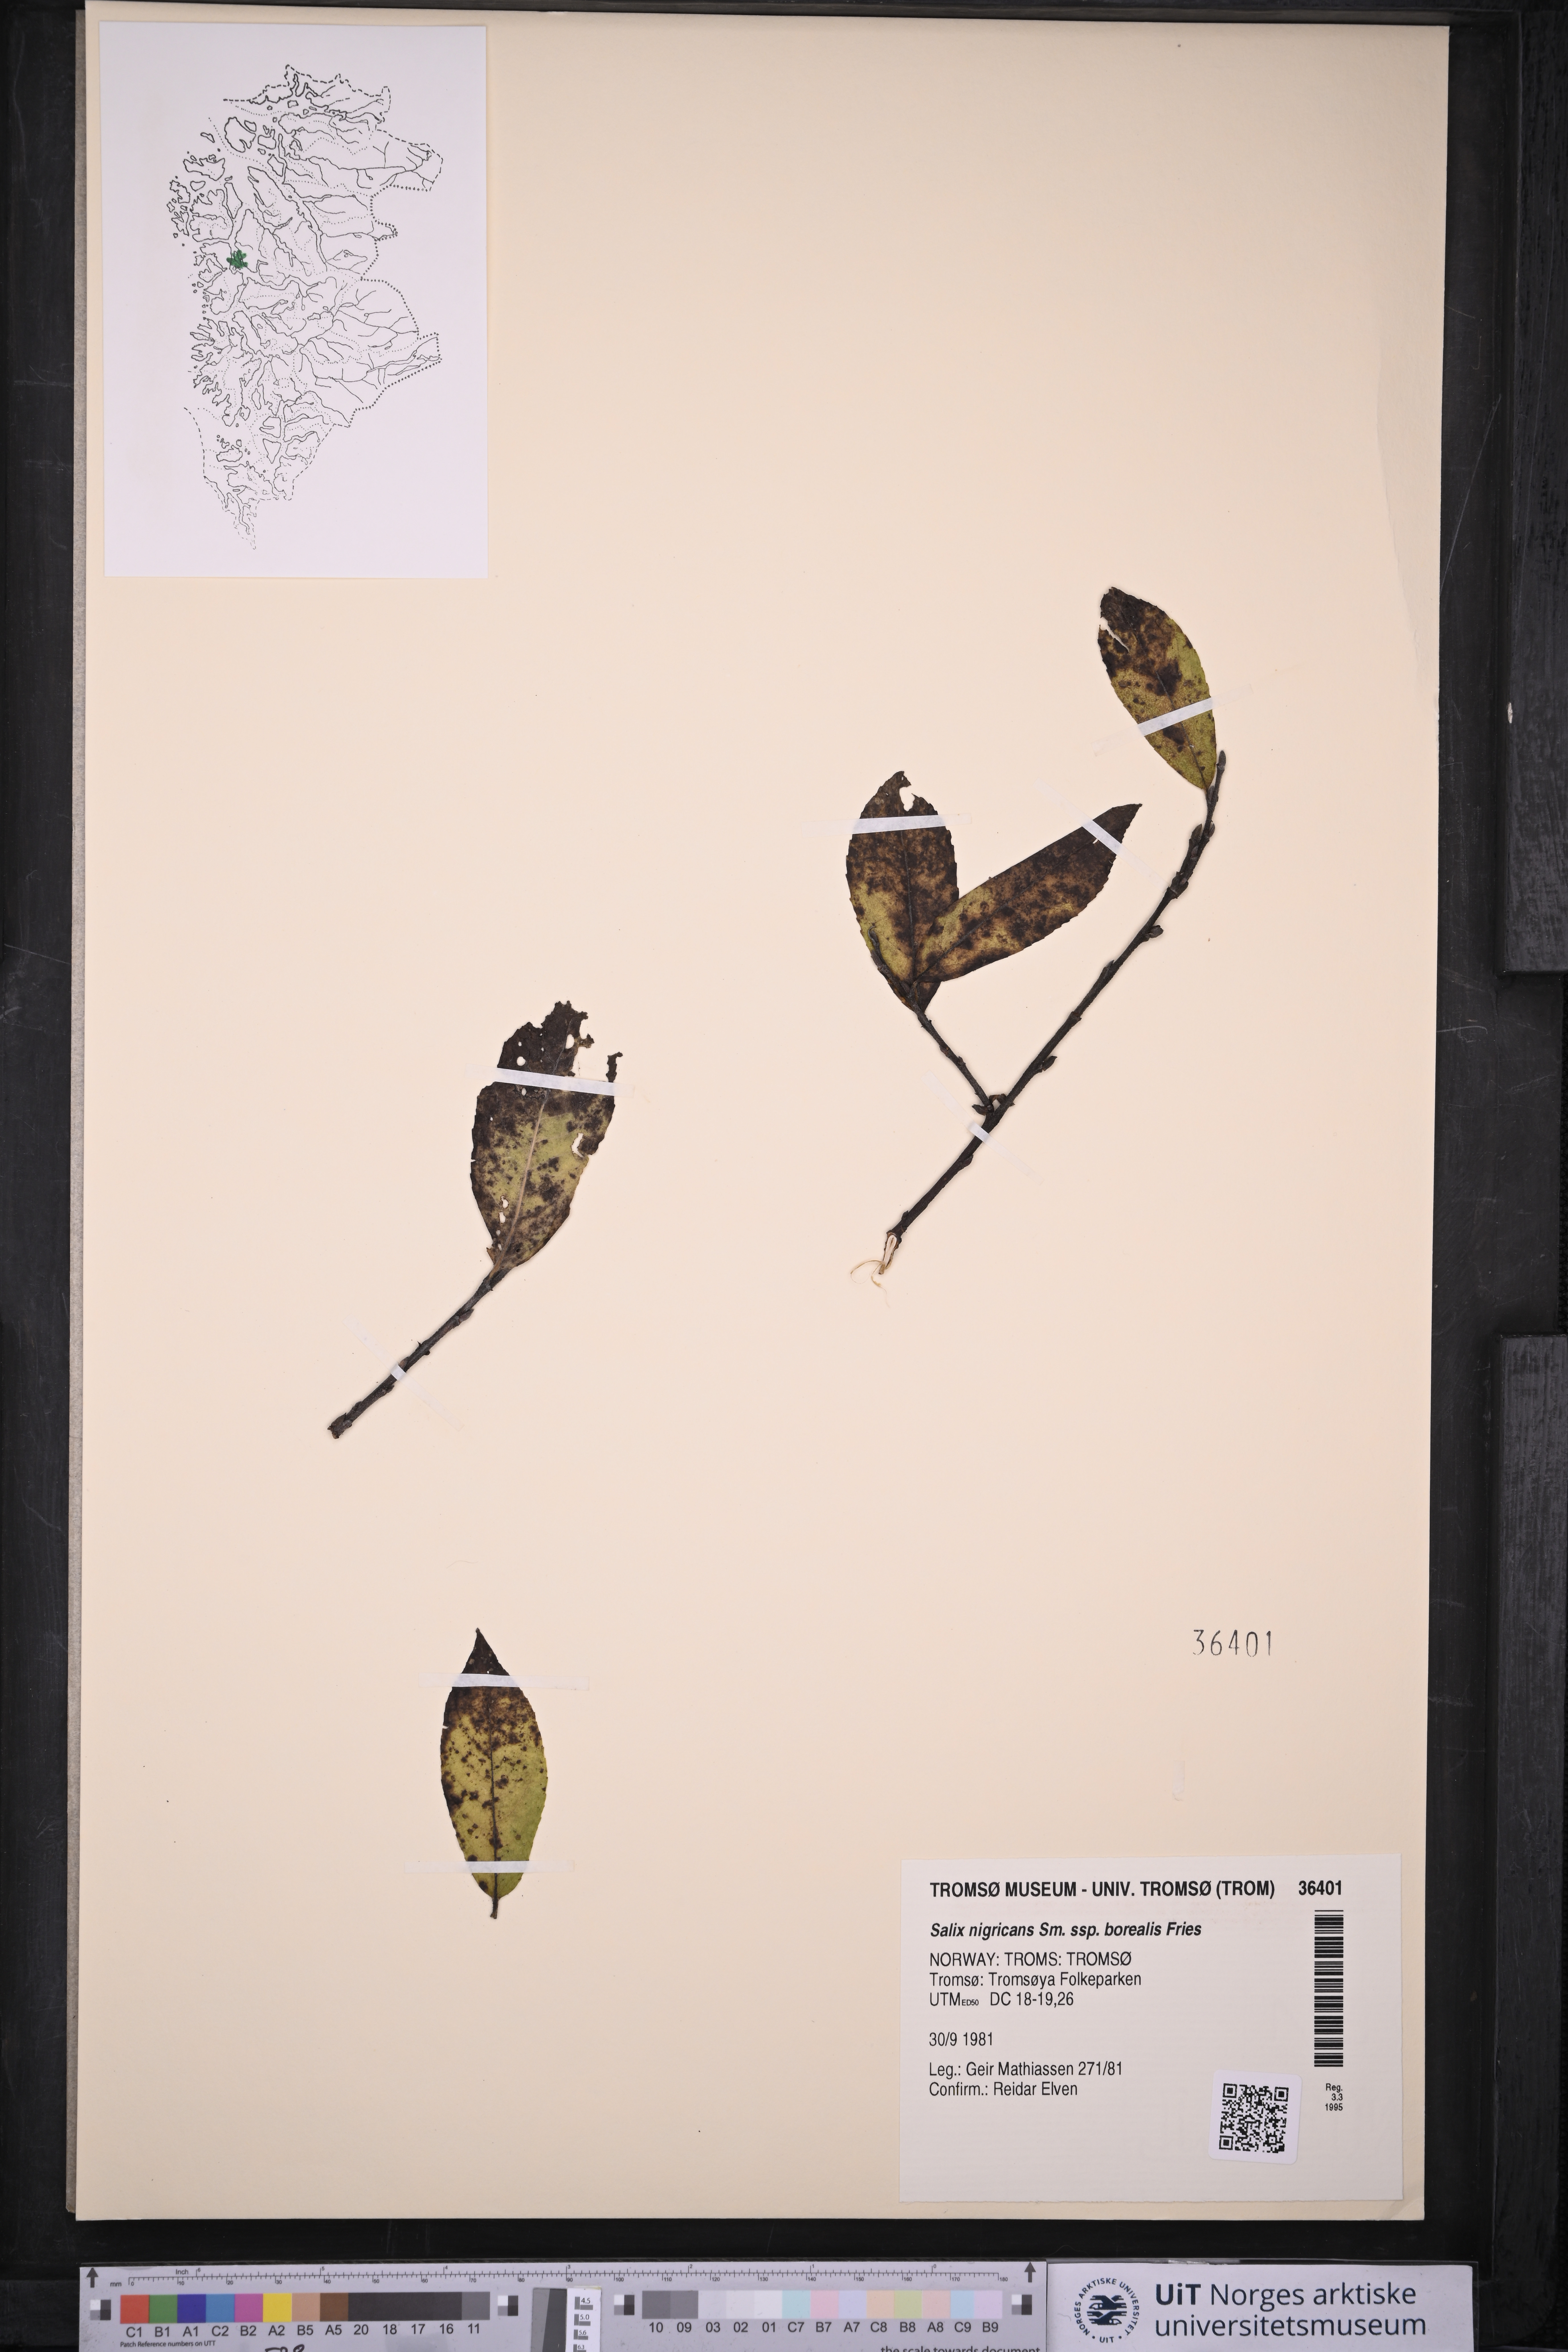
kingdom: Plantae
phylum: Tracheophyta
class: Magnoliopsida
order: Malpighiales
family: Salicaceae
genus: Salix
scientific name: Salix myrsinifolia
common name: Dark-leaved willow
